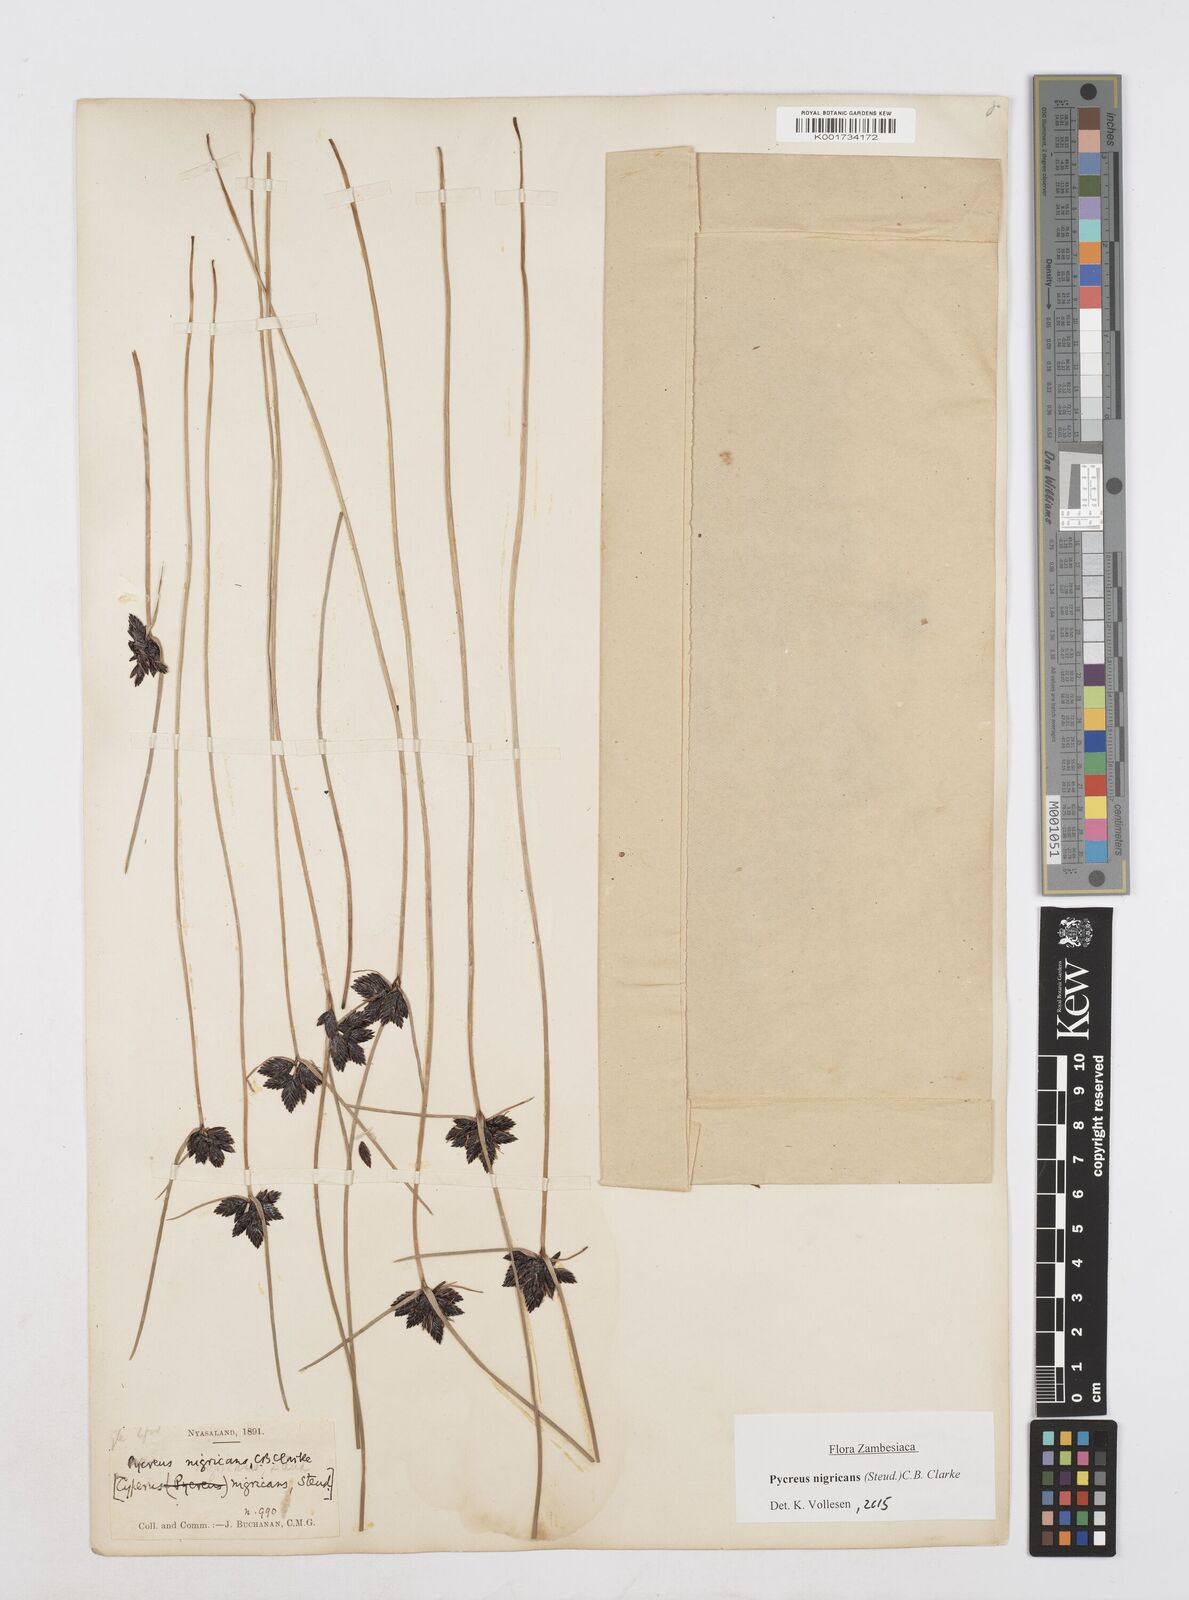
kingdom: Plantae
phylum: Tracheophyta
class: Liliopsida
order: Poales
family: Cyperaceae
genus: Cyperus
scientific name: Cyperus nigricans
